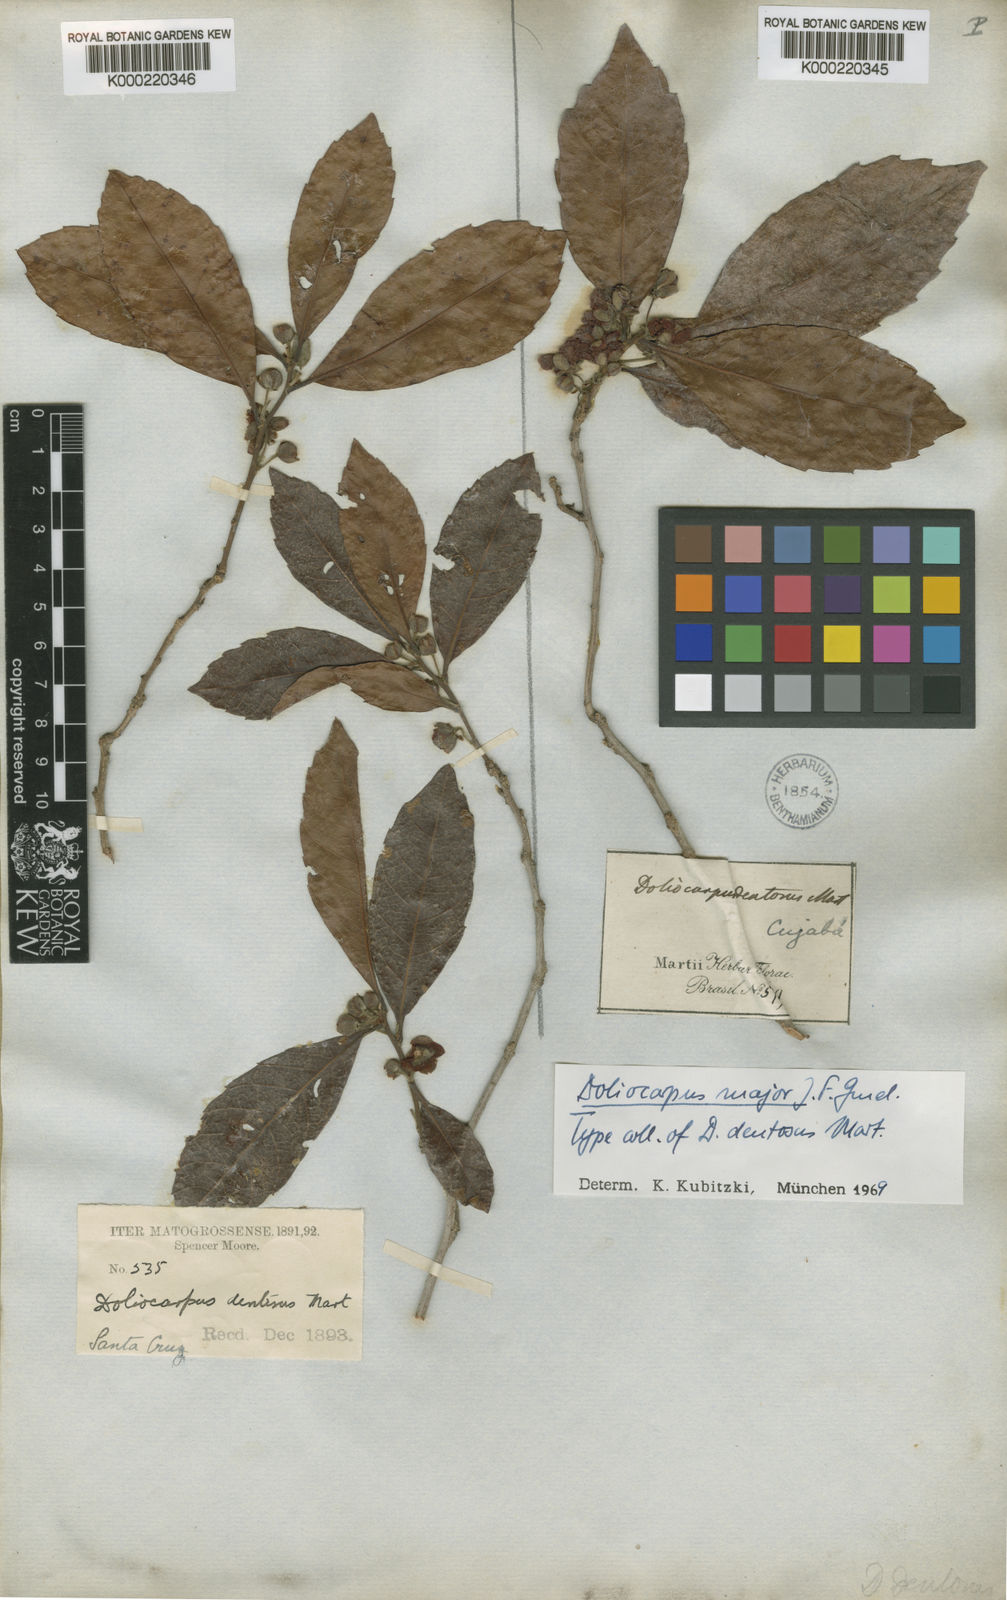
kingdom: Plantae
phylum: Tracheophyta
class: Magnoliopsida
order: Dilleniales
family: Dilleniaceae
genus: Doliocarpus
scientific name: Doliocarpus major
